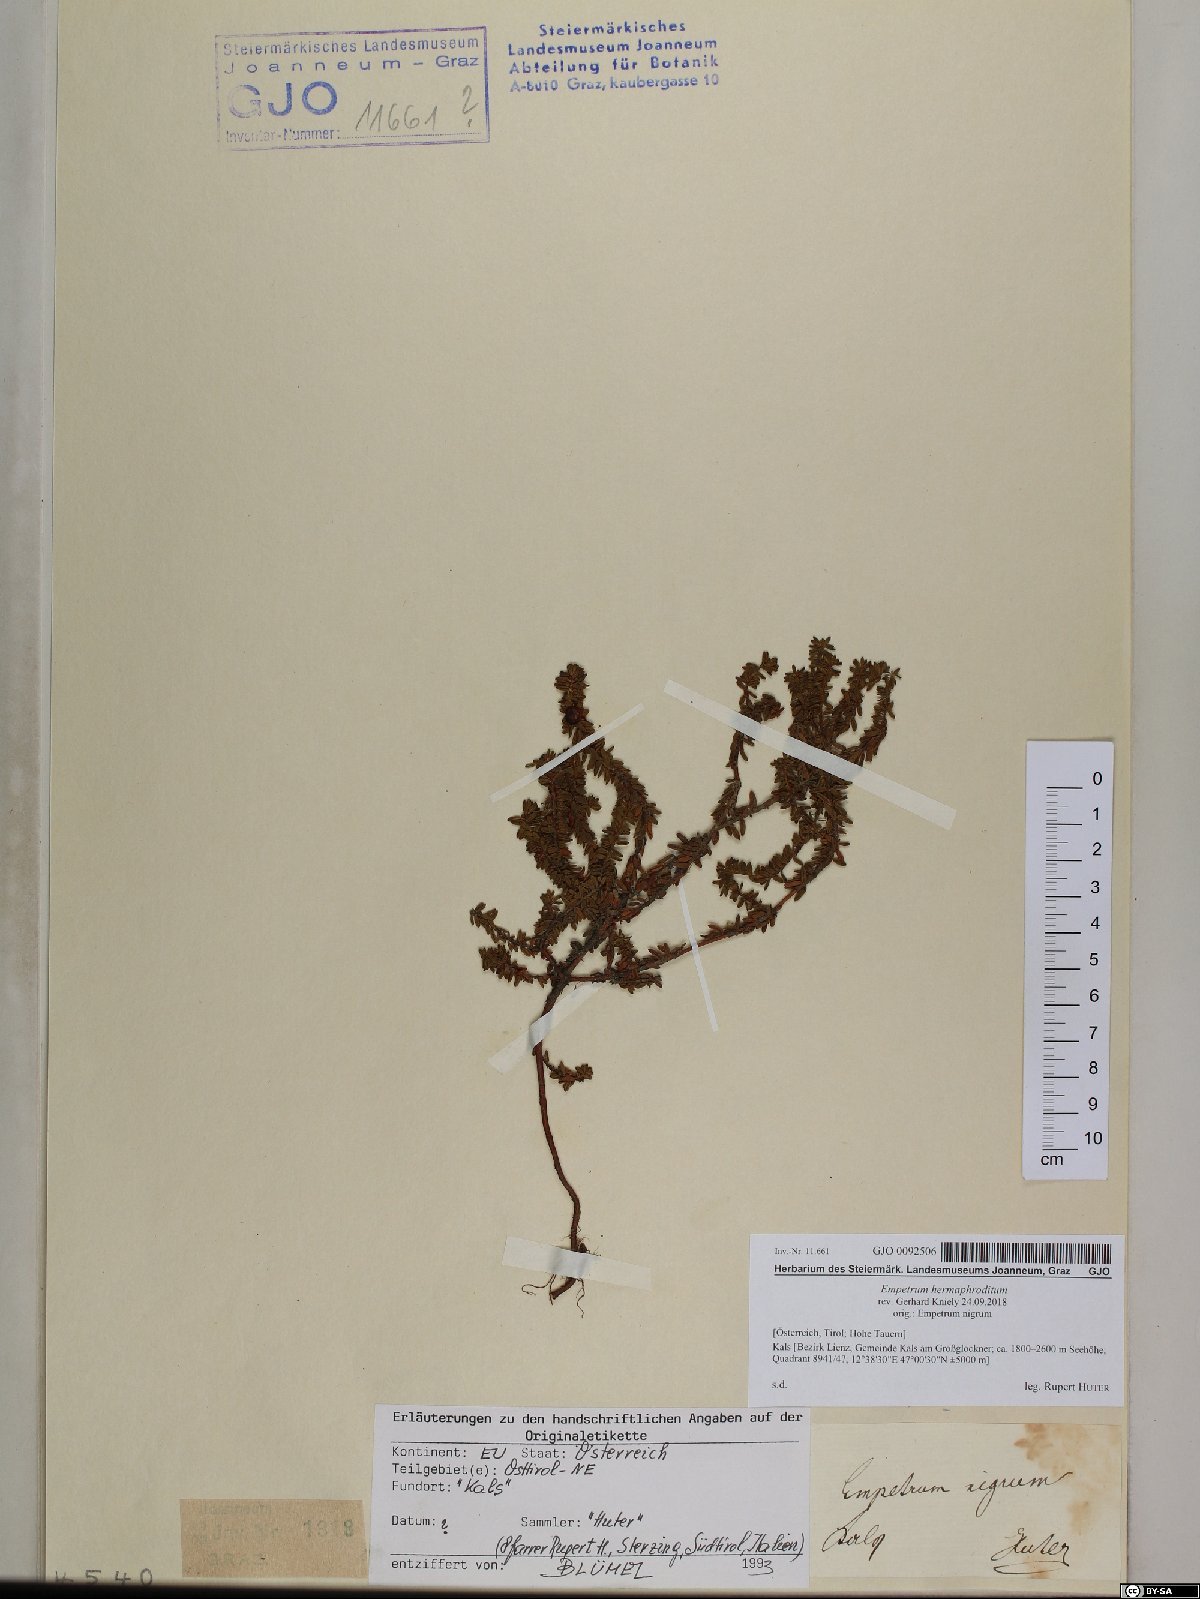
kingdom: Plantae
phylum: Tracheophyta
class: Magnoliopsida
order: Ericales
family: Ericaceae
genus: Empetrum
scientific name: Empetrum hermaphroditum
